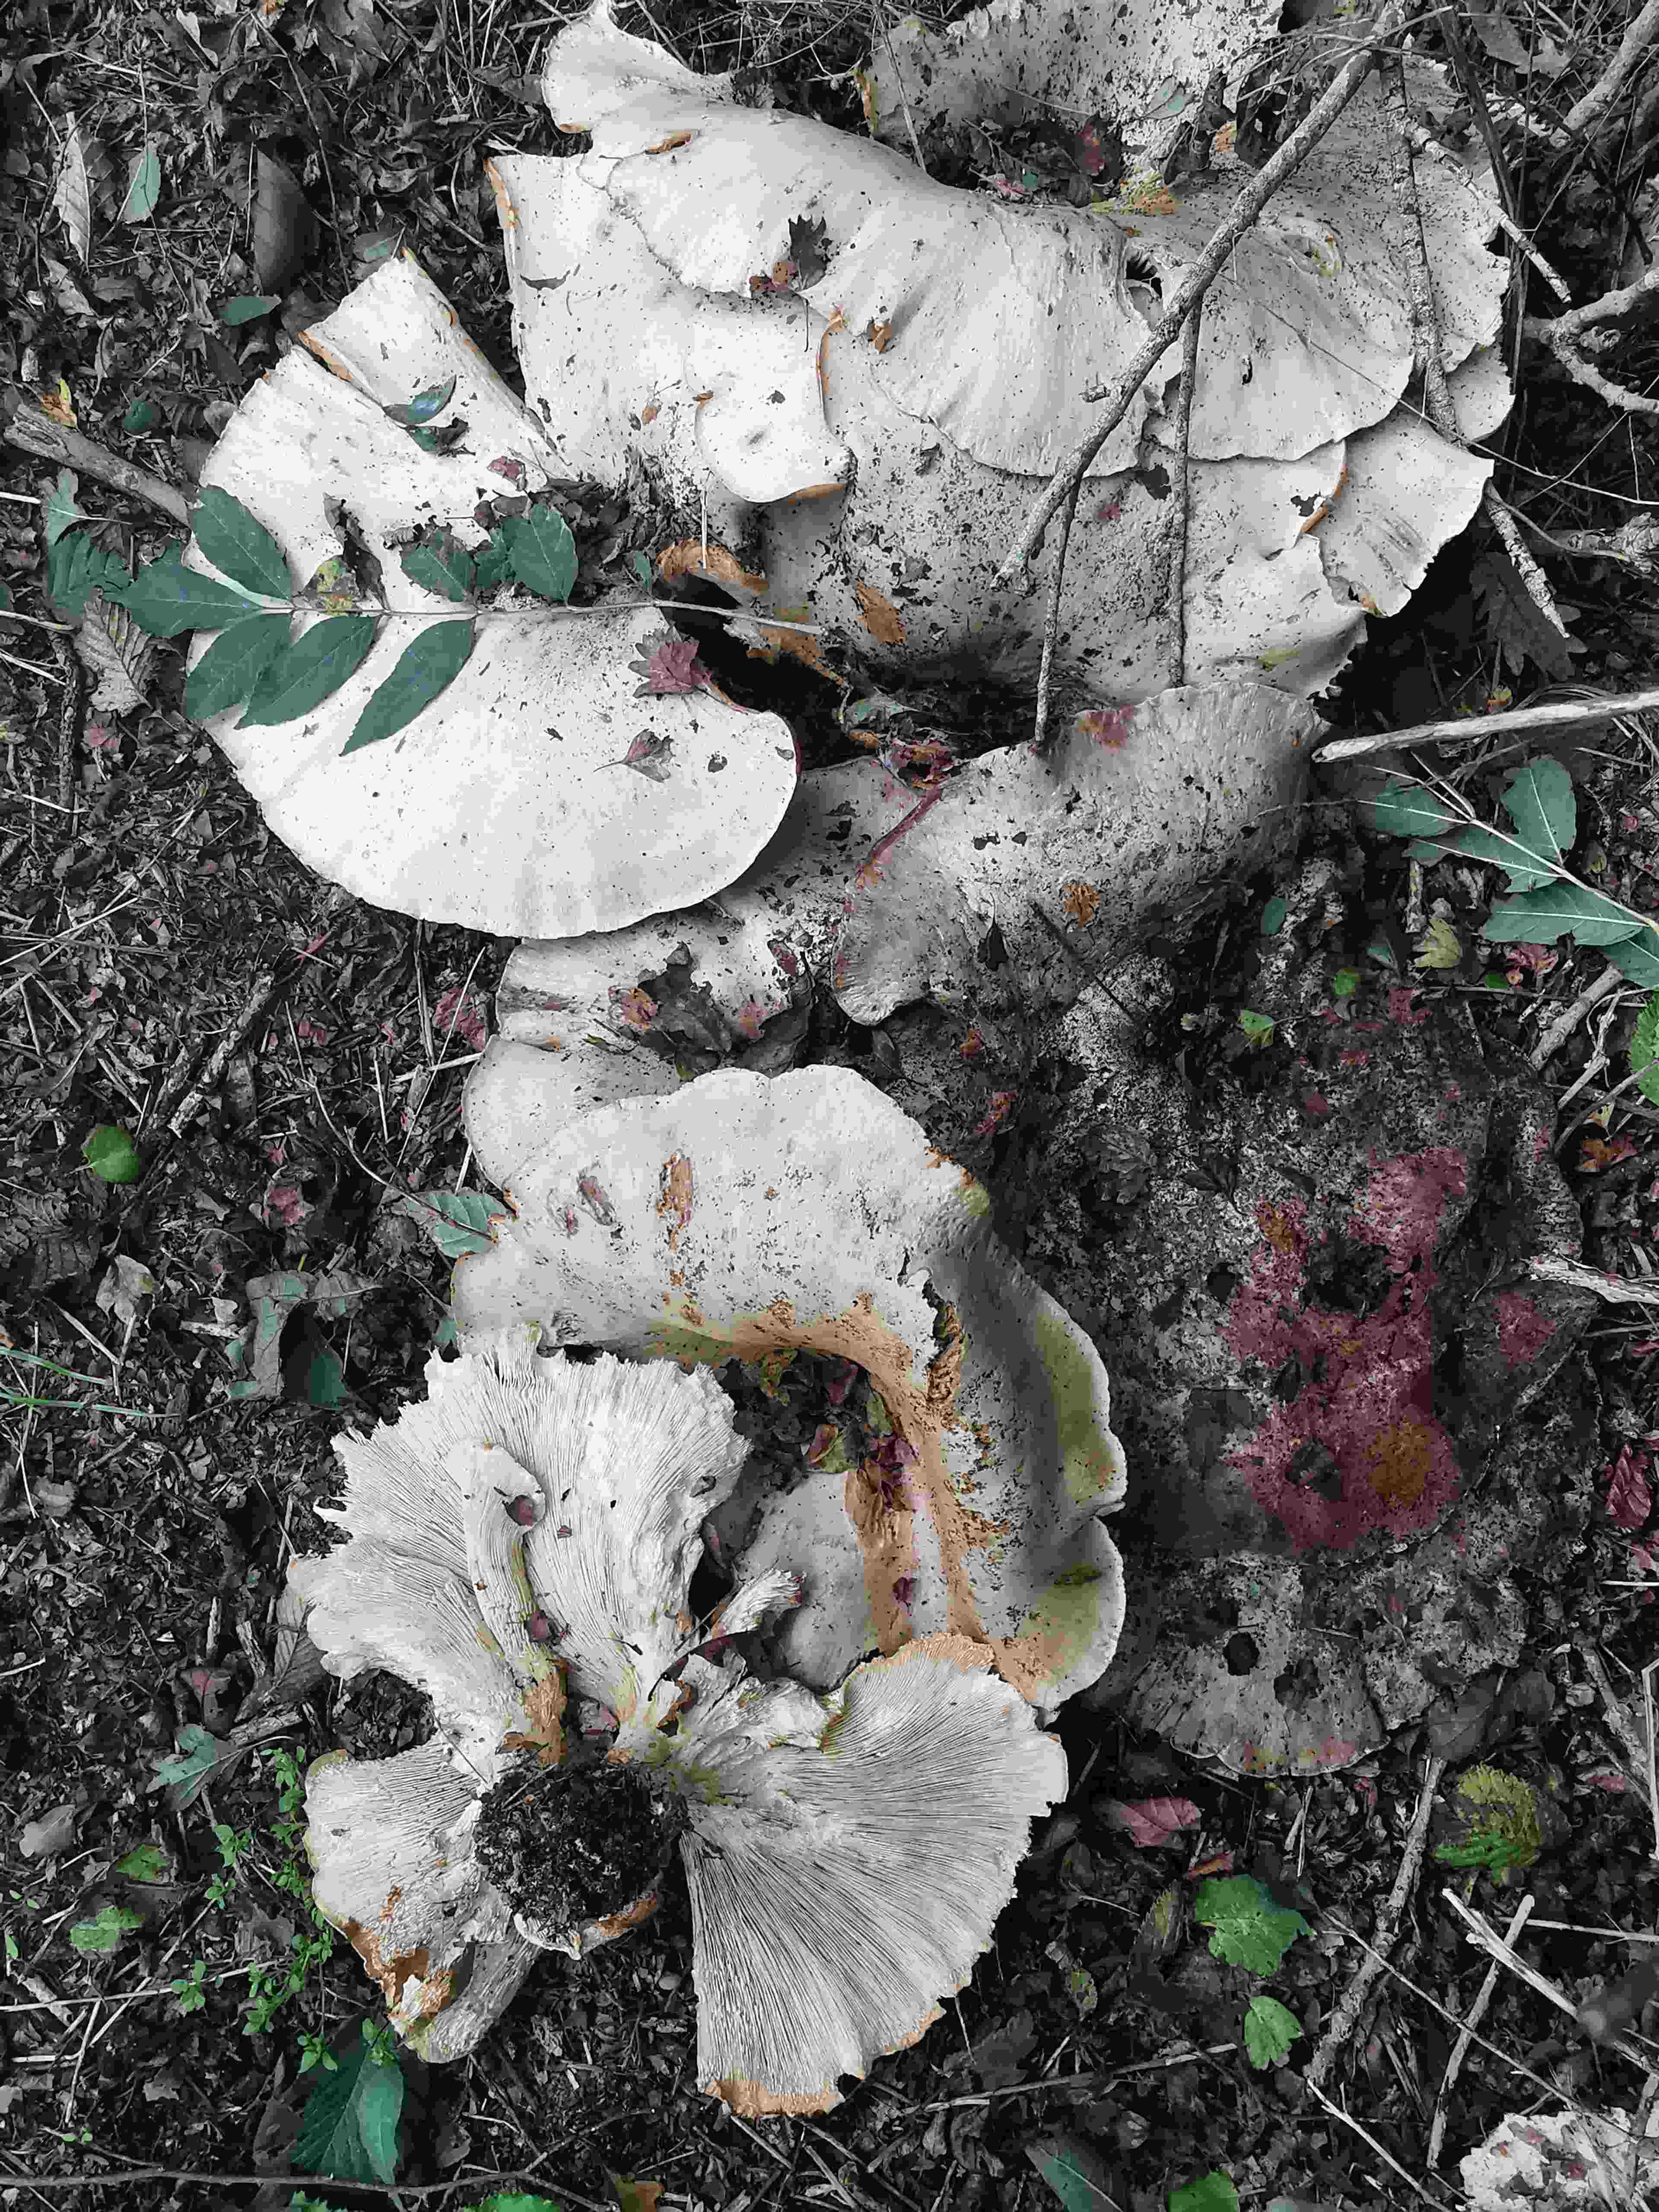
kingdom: Fungi
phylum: Basidiomycota
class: Agaricomycetes
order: Agaricales
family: Tricholomataceae
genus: Aspropaxillus
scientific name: Aspropaxillus giganteus
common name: kæmpe-tragtridderhat
